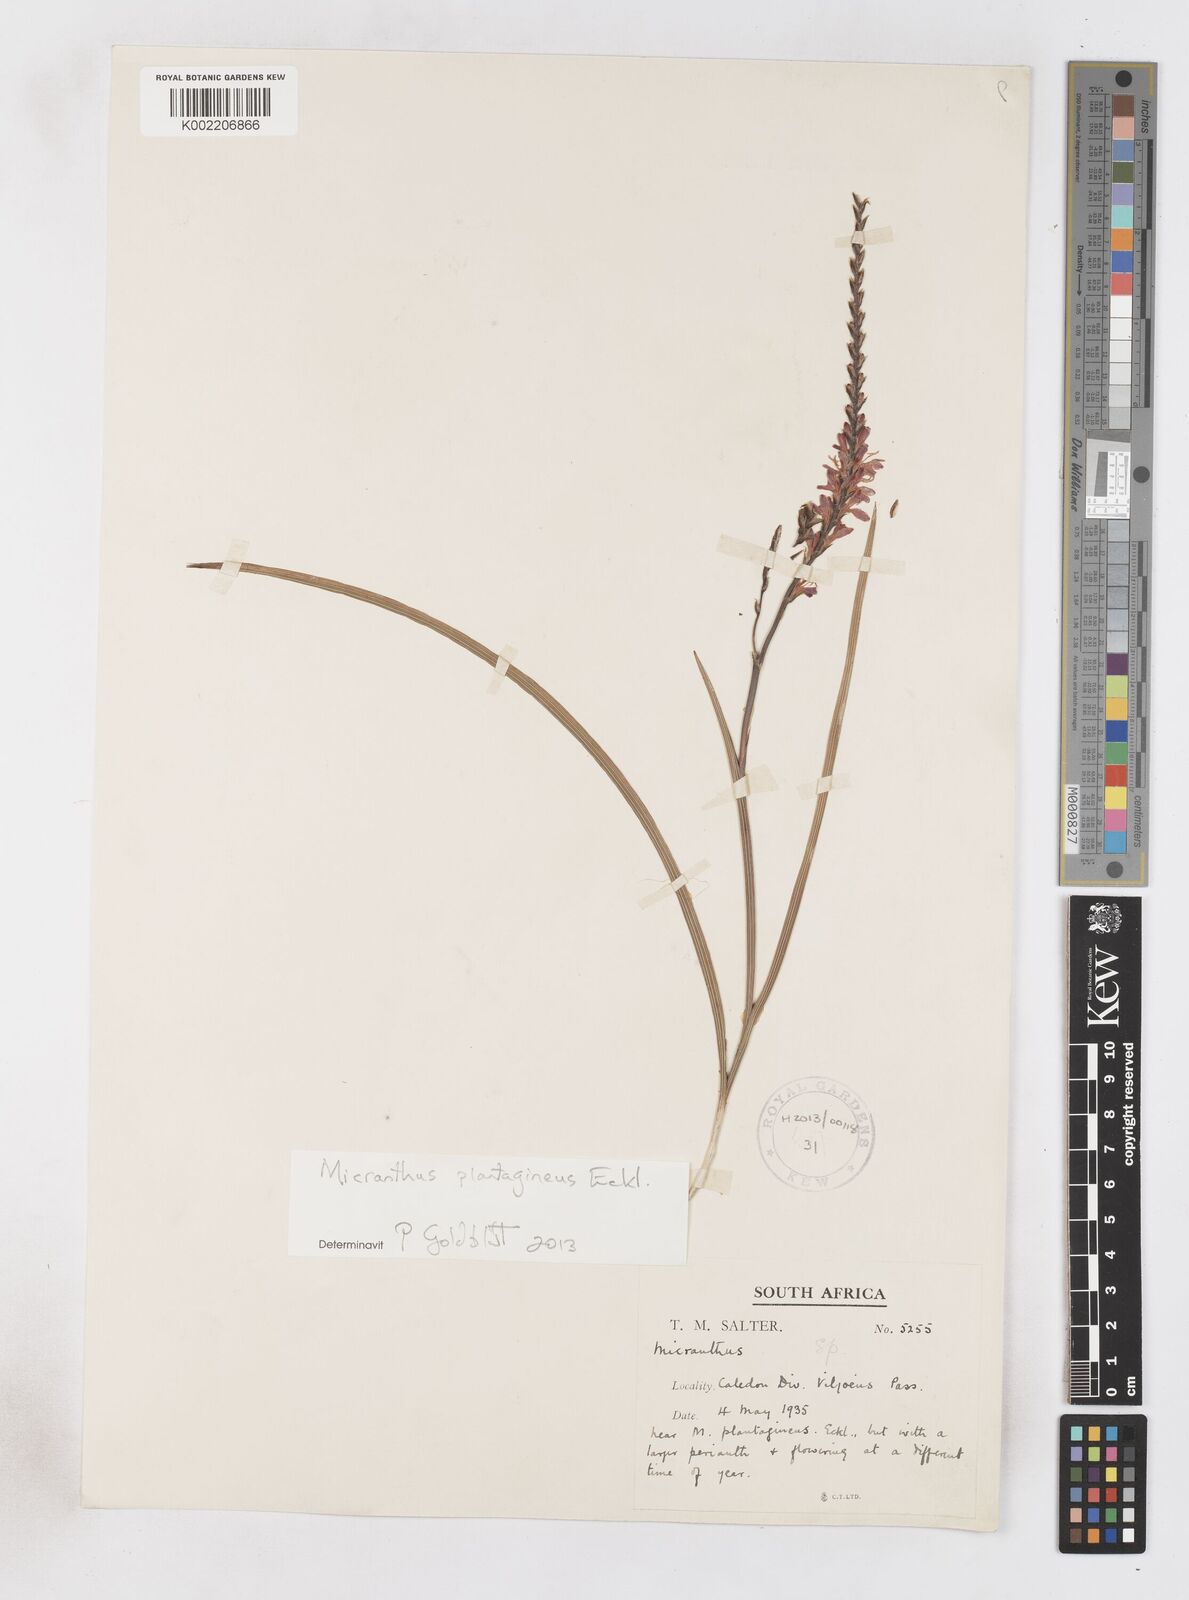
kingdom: Plantae
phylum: Tracheophyta
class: Liliopsida
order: Asparagales
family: Iridaceae
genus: Micranthus
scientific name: Micranthus plantagineus
